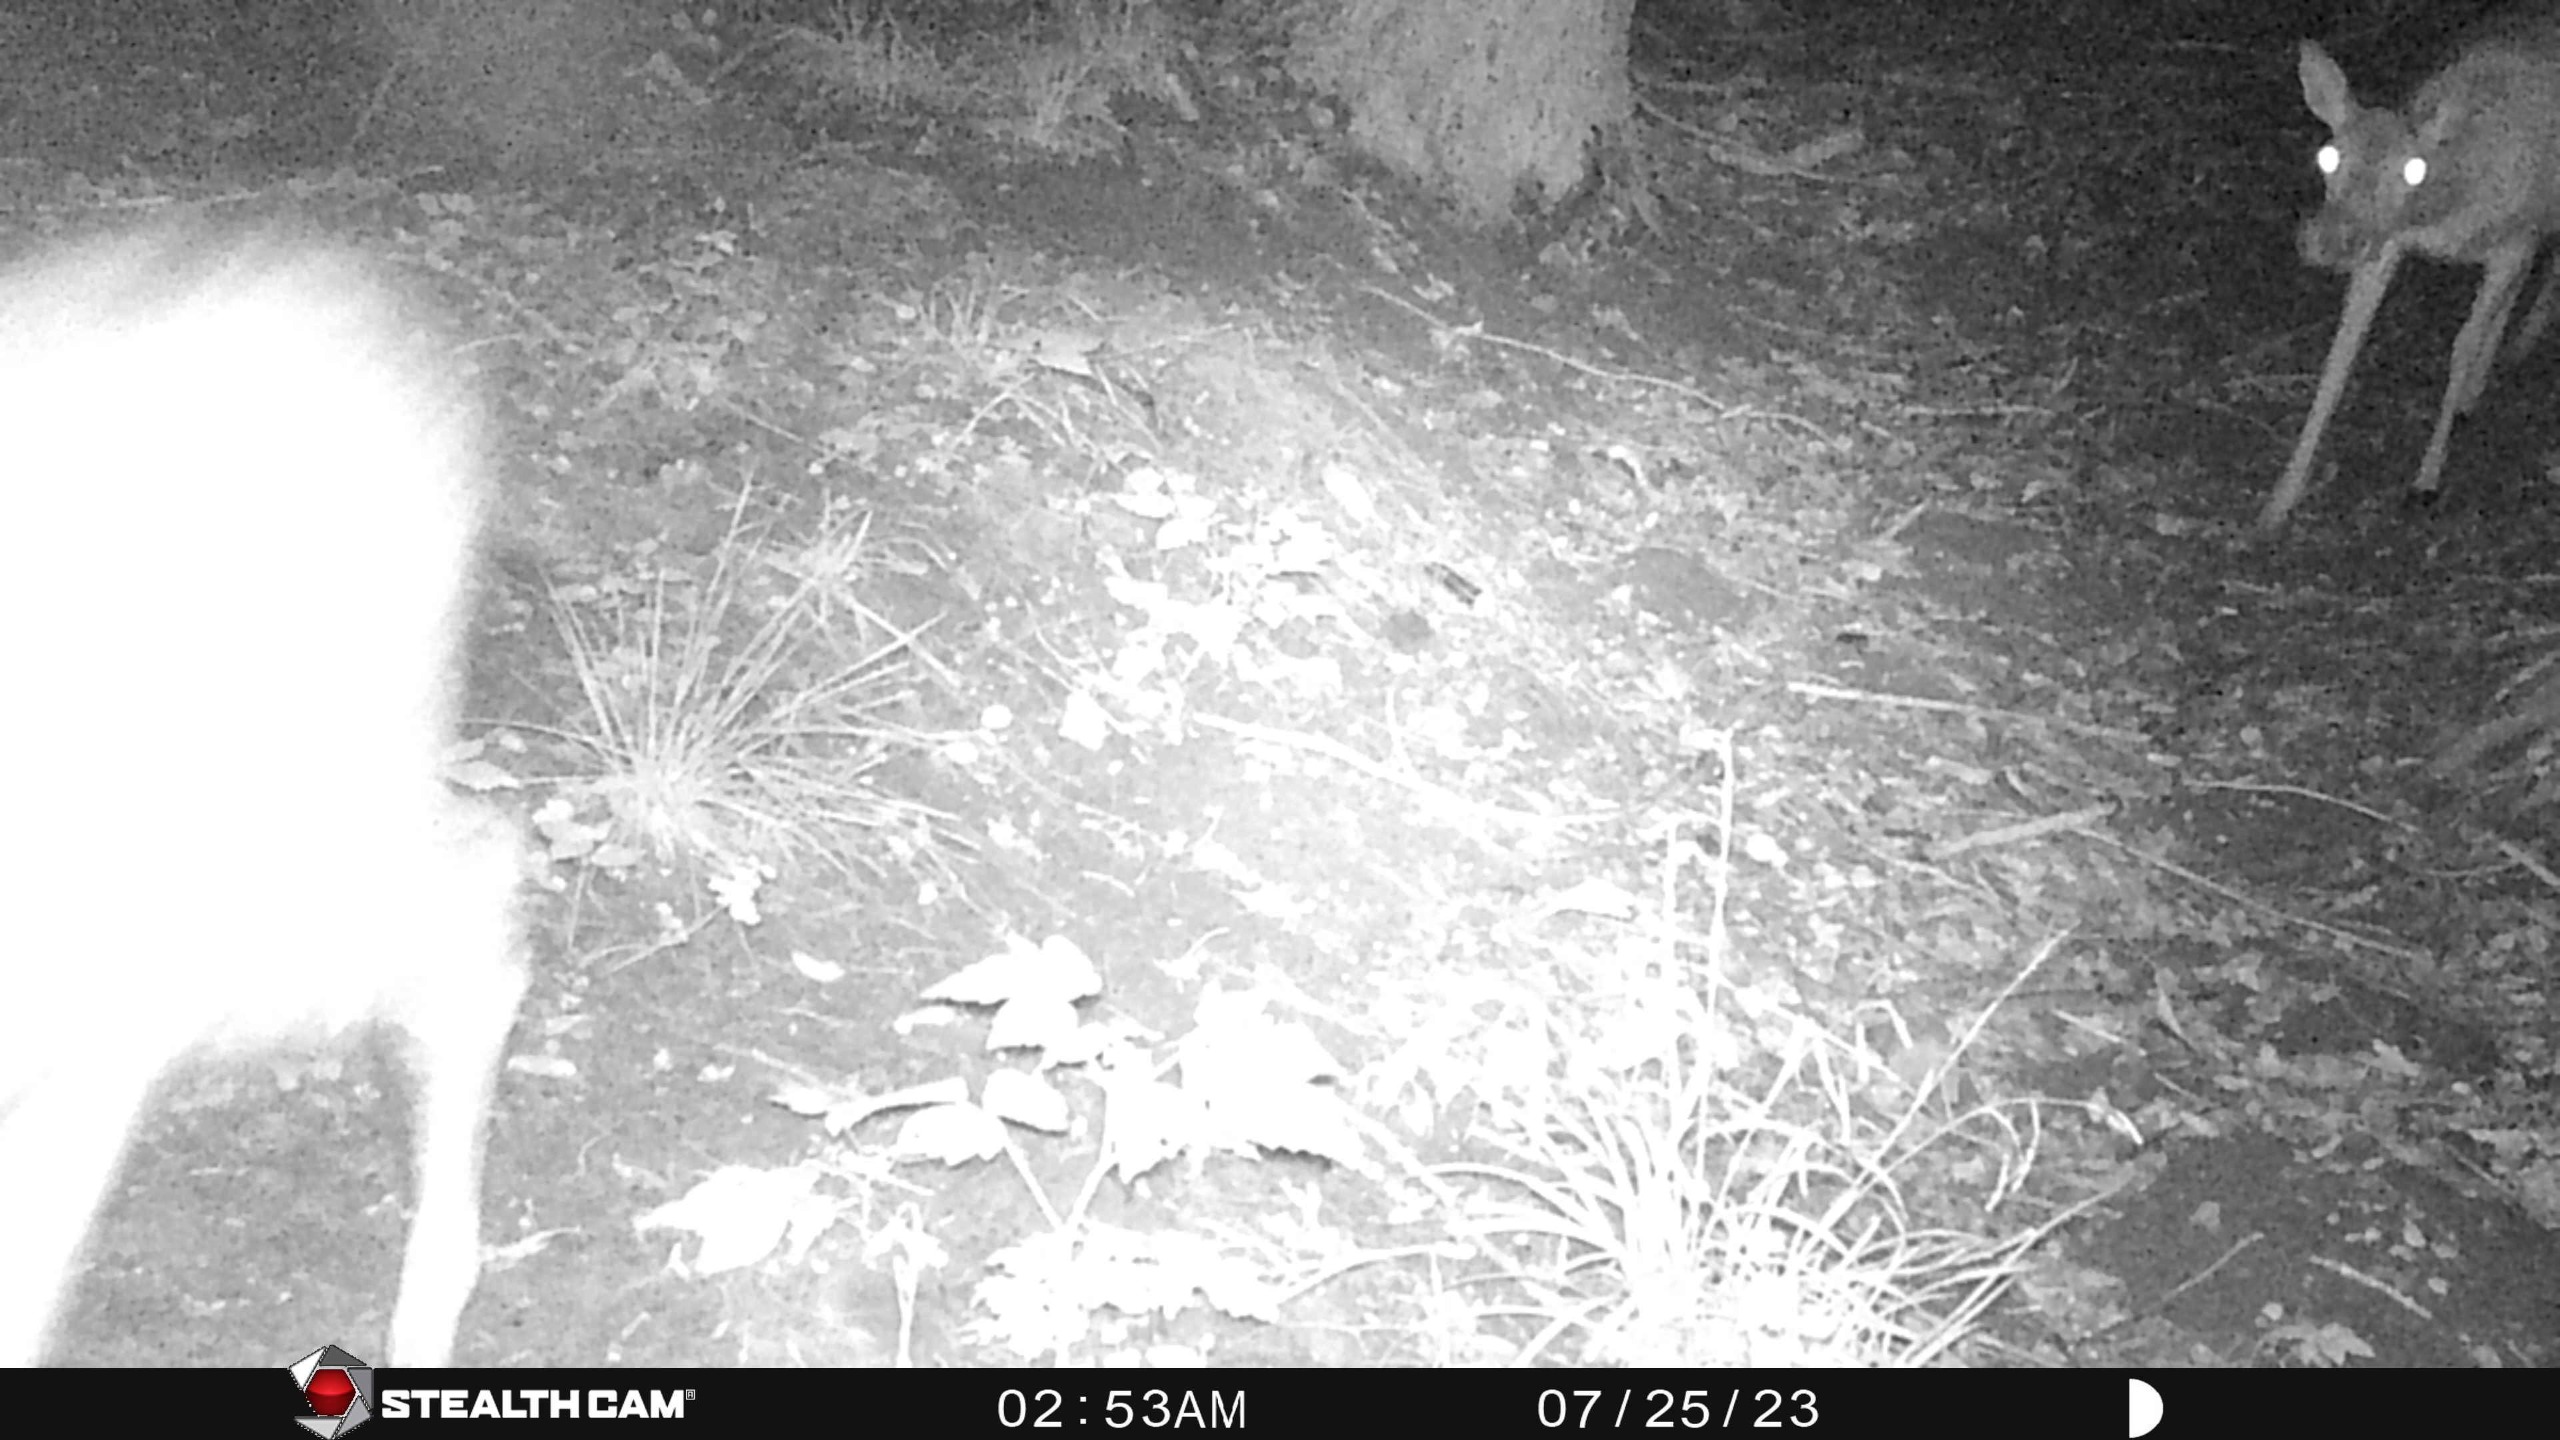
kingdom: Animalia
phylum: Chordata
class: Mammalia
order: Artiodactyla
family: Cervidae
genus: Dama
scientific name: Dama dama
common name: Dådyr
